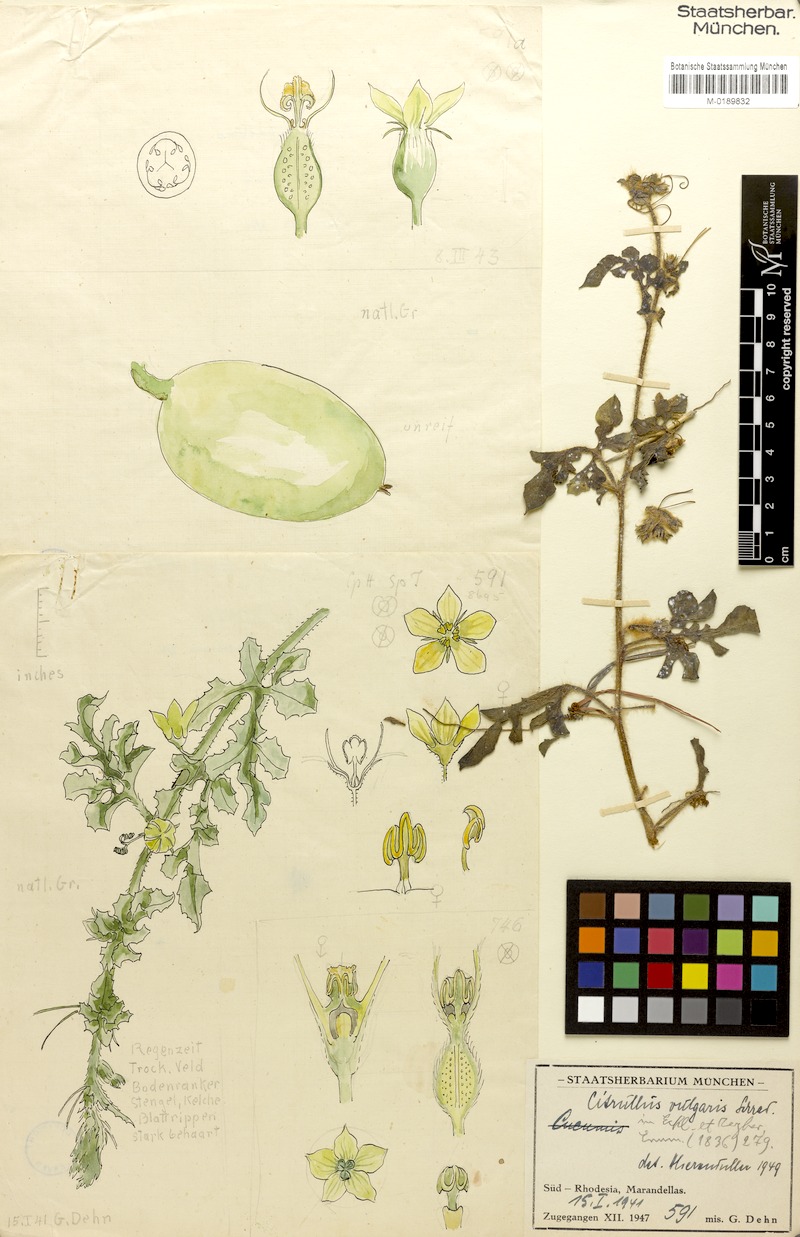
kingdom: Plantae
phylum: Tracheophyta
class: Magnoliopsida
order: Cucurbitales
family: Cucurbitaceae
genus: Citrullus
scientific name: Citrullus lanatus
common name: Watermelon
